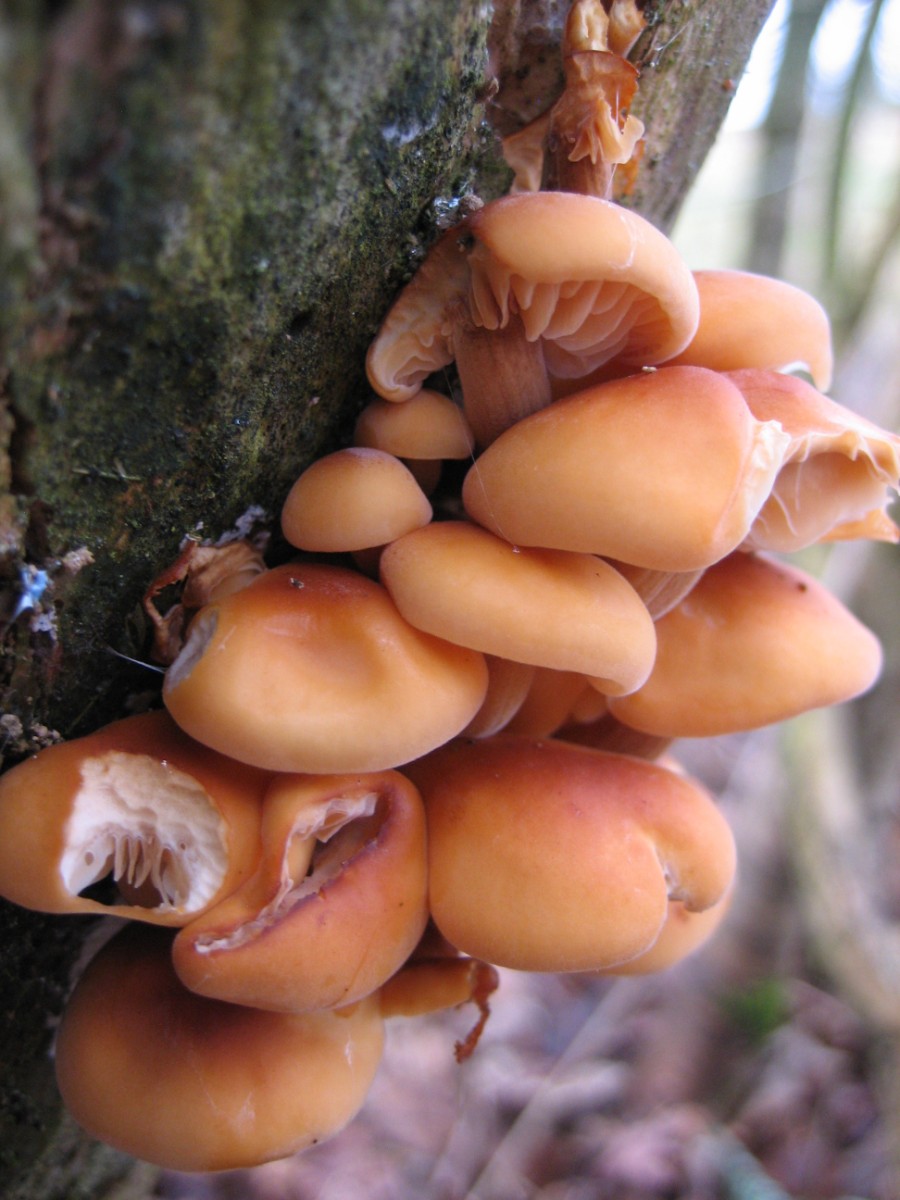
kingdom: Fungi
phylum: Basidiomycota
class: Agaricomycetes
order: Agaricales
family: Physalacriaceae
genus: Flammulina
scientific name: Flammulina velutipes
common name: gul fløjlsfod
